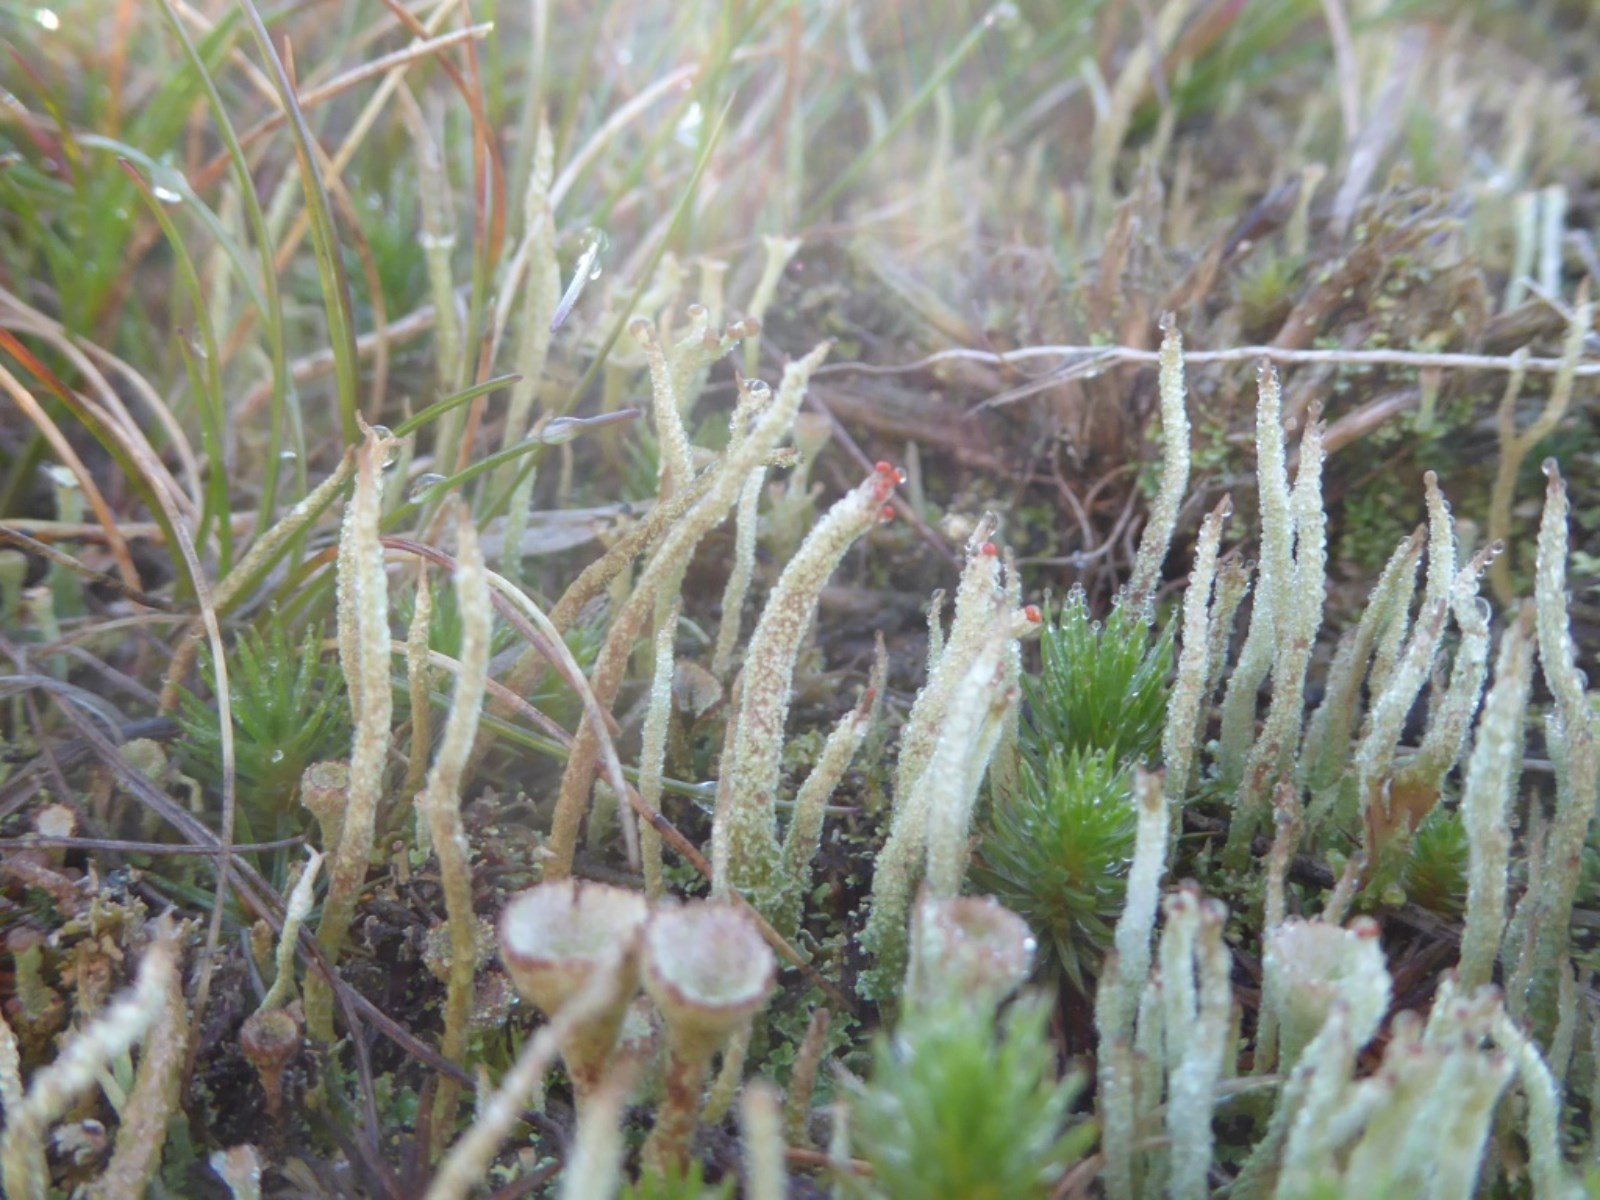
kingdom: Fungi
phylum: Ascomycota
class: Lecanoromycetes
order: Lecanorales
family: Cladoniaceae
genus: Cladonia
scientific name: Cladonia floerkeana
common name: lakrød bægerlav
